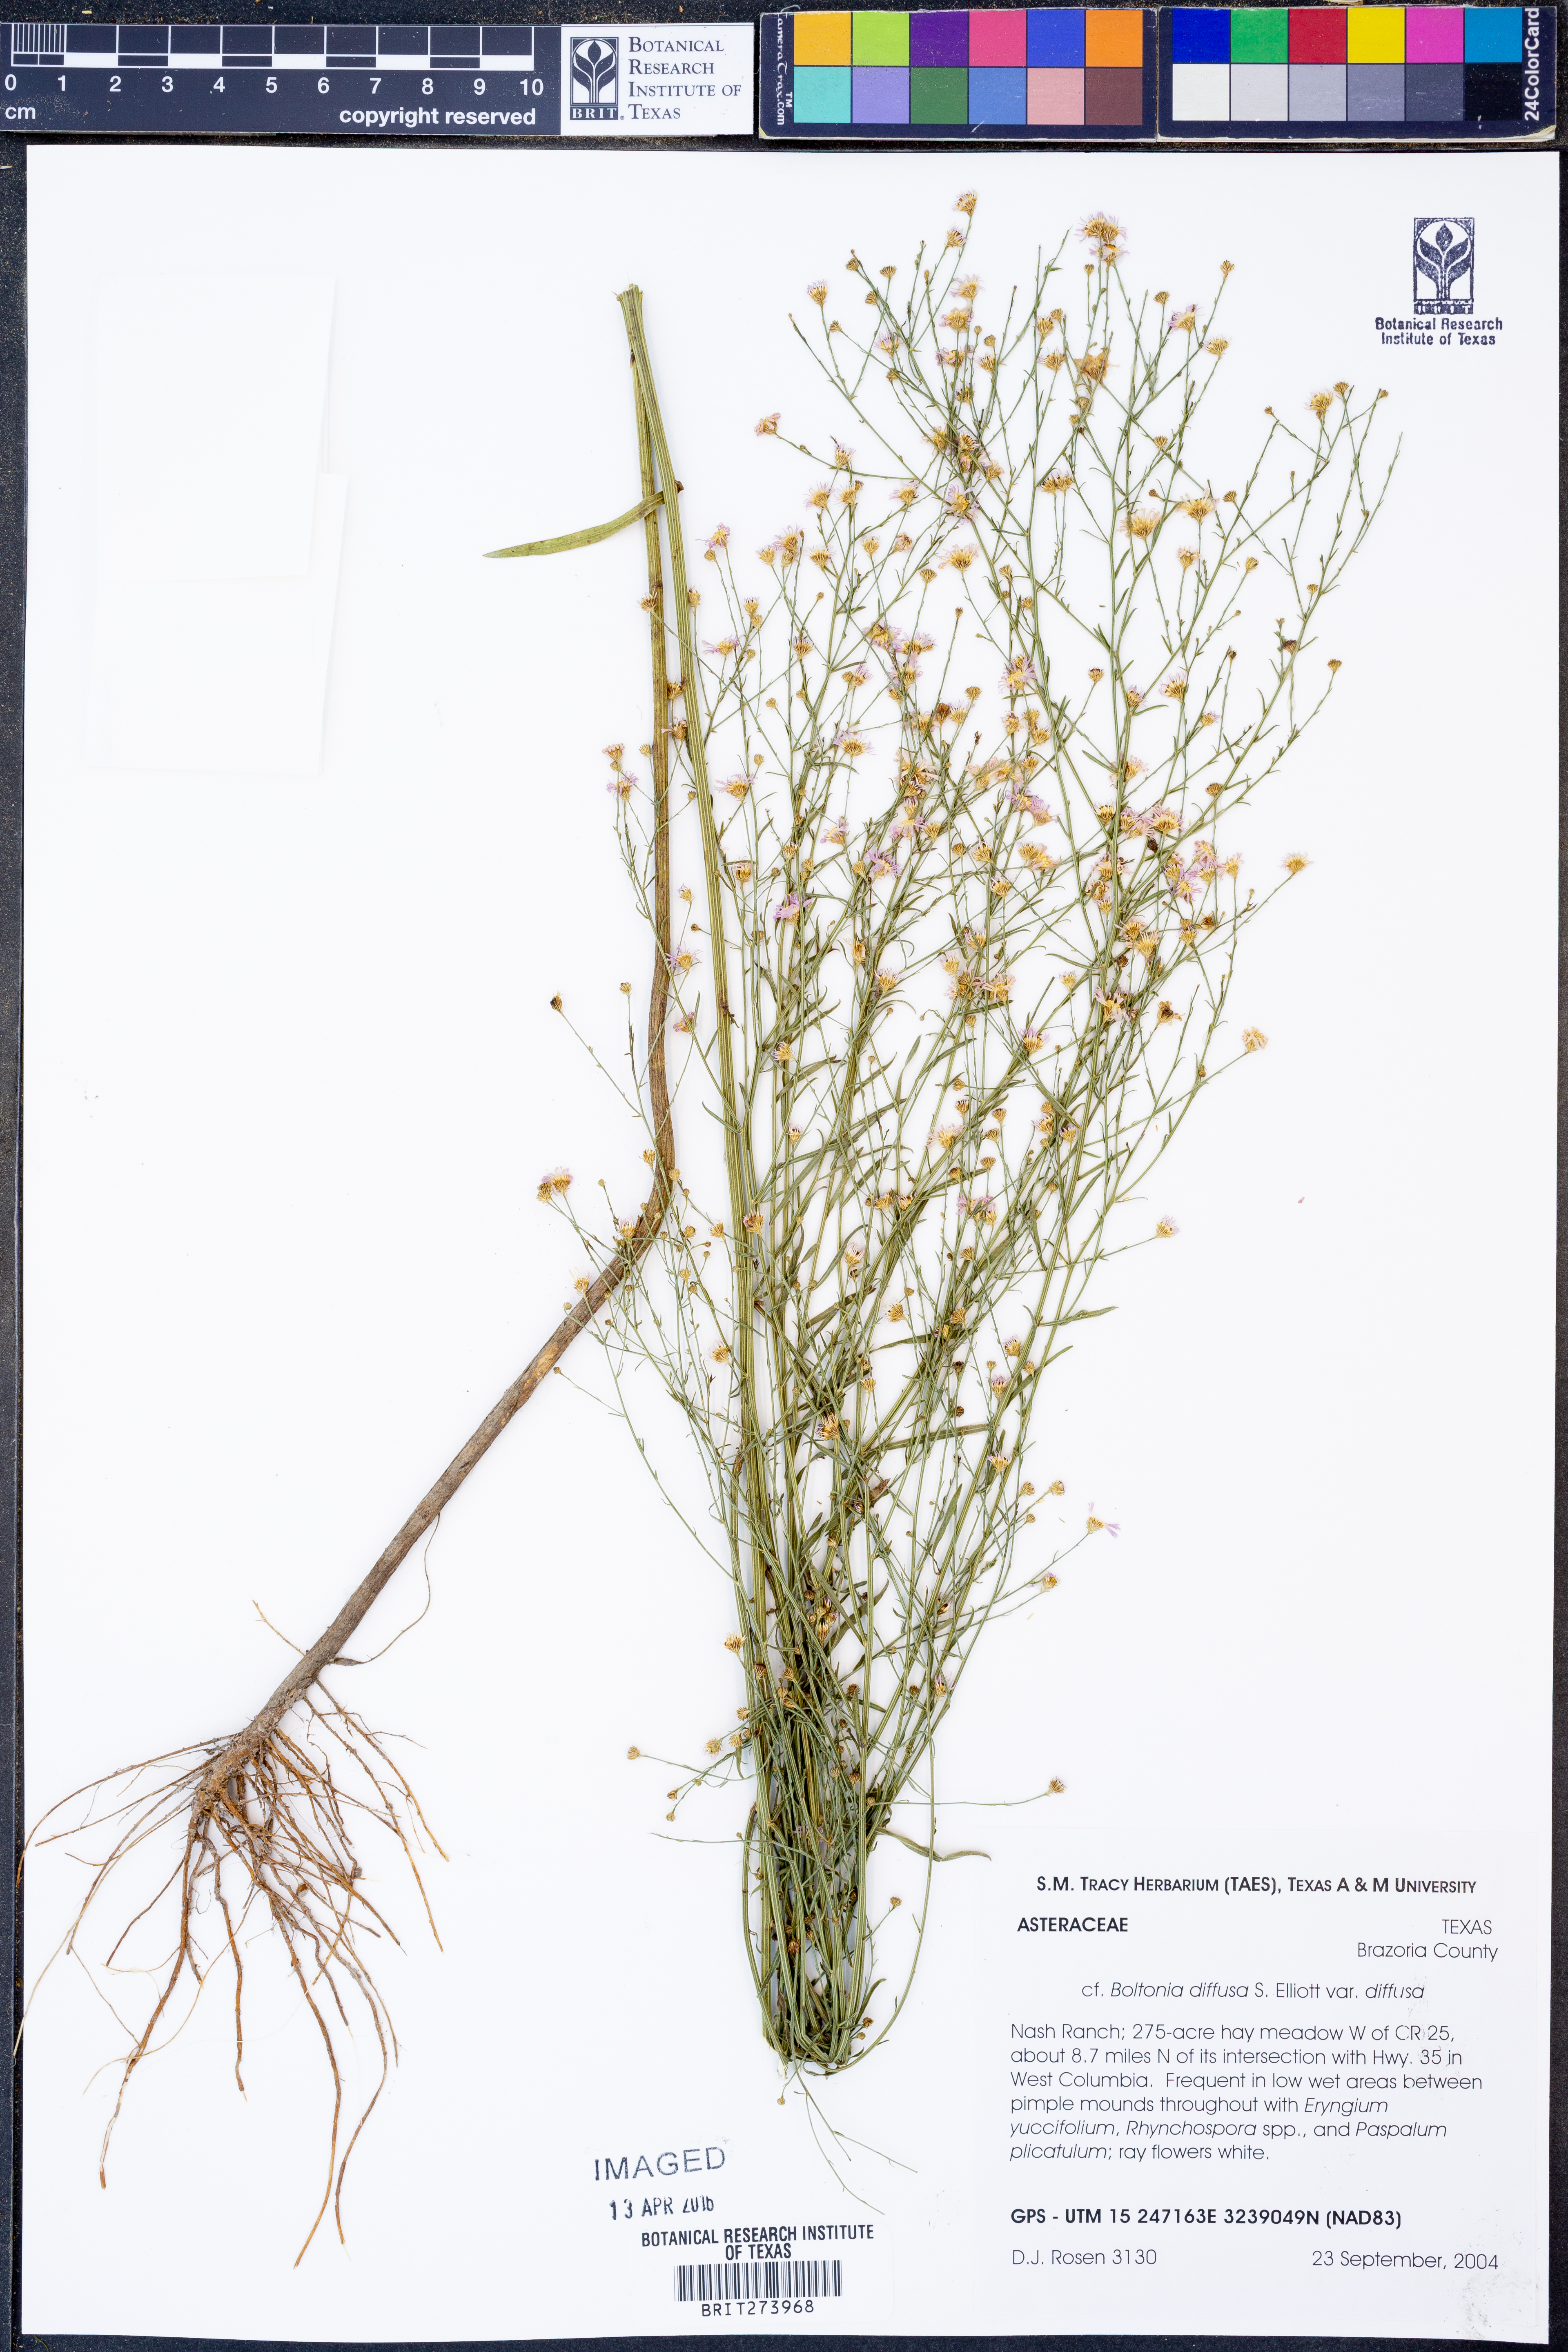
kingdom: Plantae
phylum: Tracheophyta
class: Magnoliopsida
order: Asterales
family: Asteraceae
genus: Boltonia
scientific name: Boltonia diffusa
